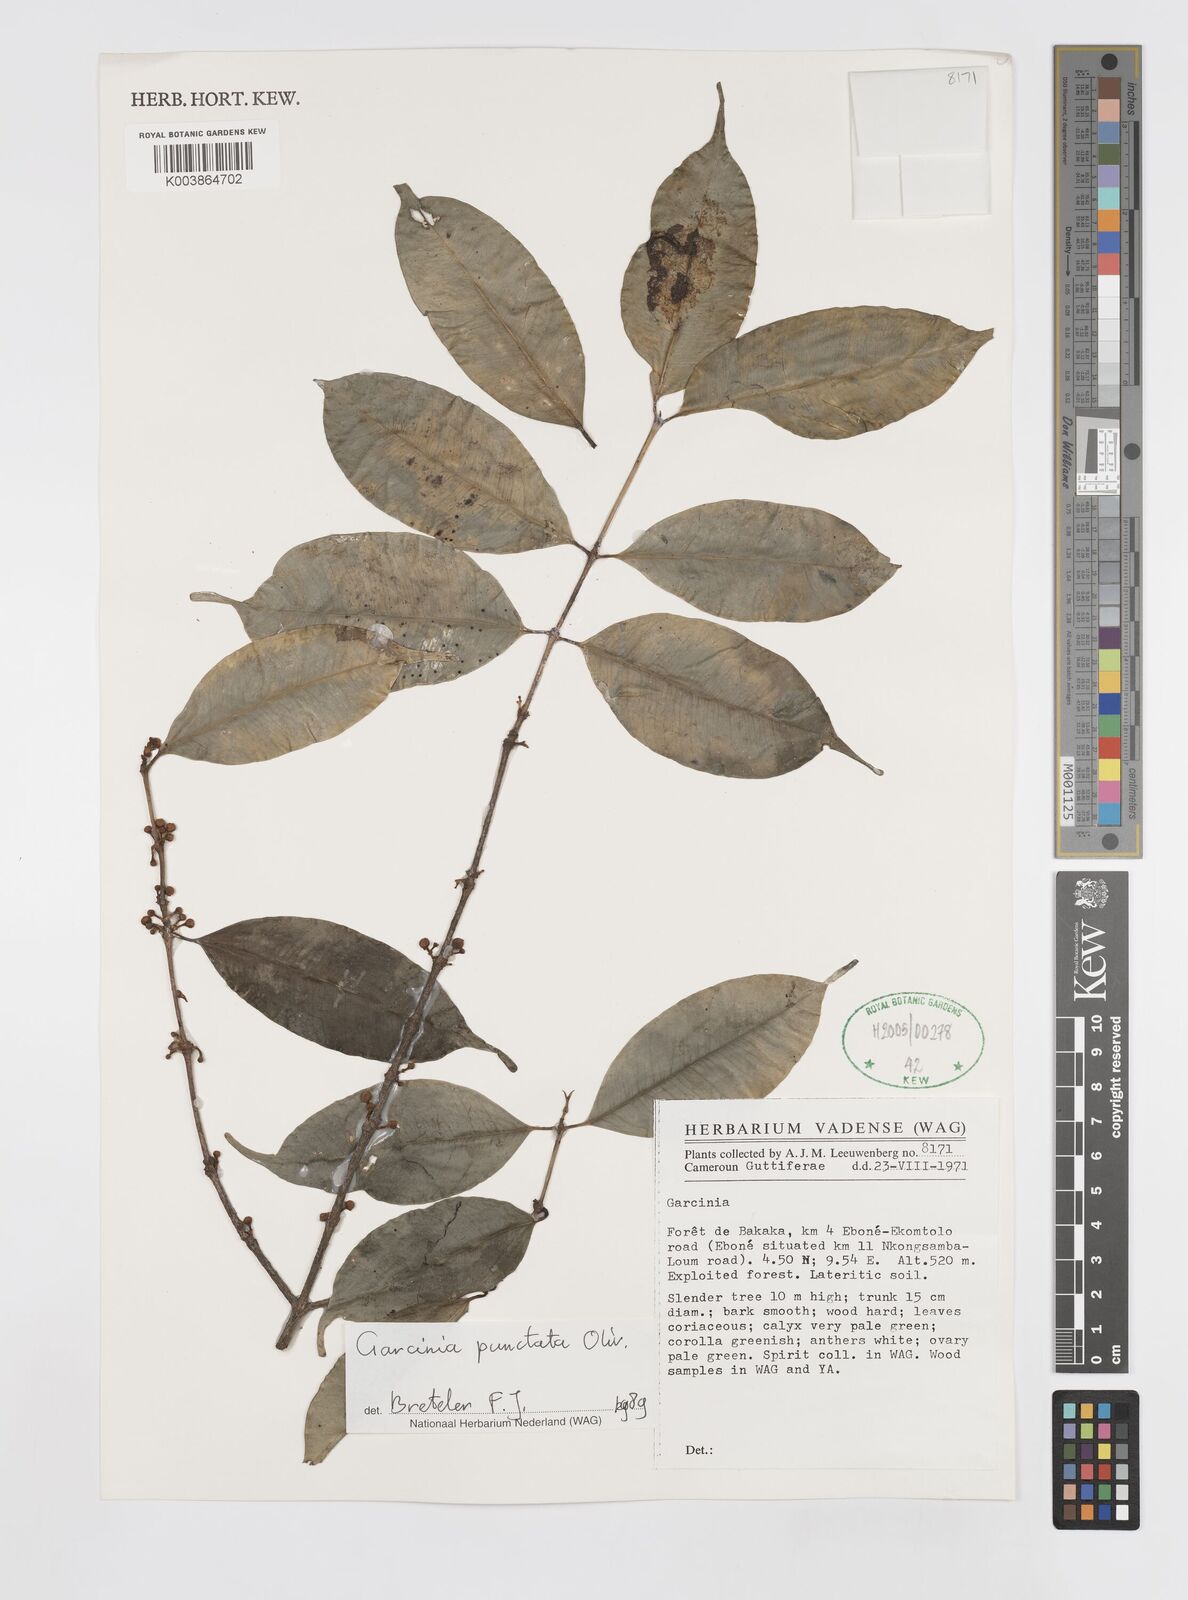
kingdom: Plantae
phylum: Tracheophyta
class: Magnoliopsida
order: Malpighiales
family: Clusiaceae
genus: Garcinia
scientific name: Garcinia punctata
